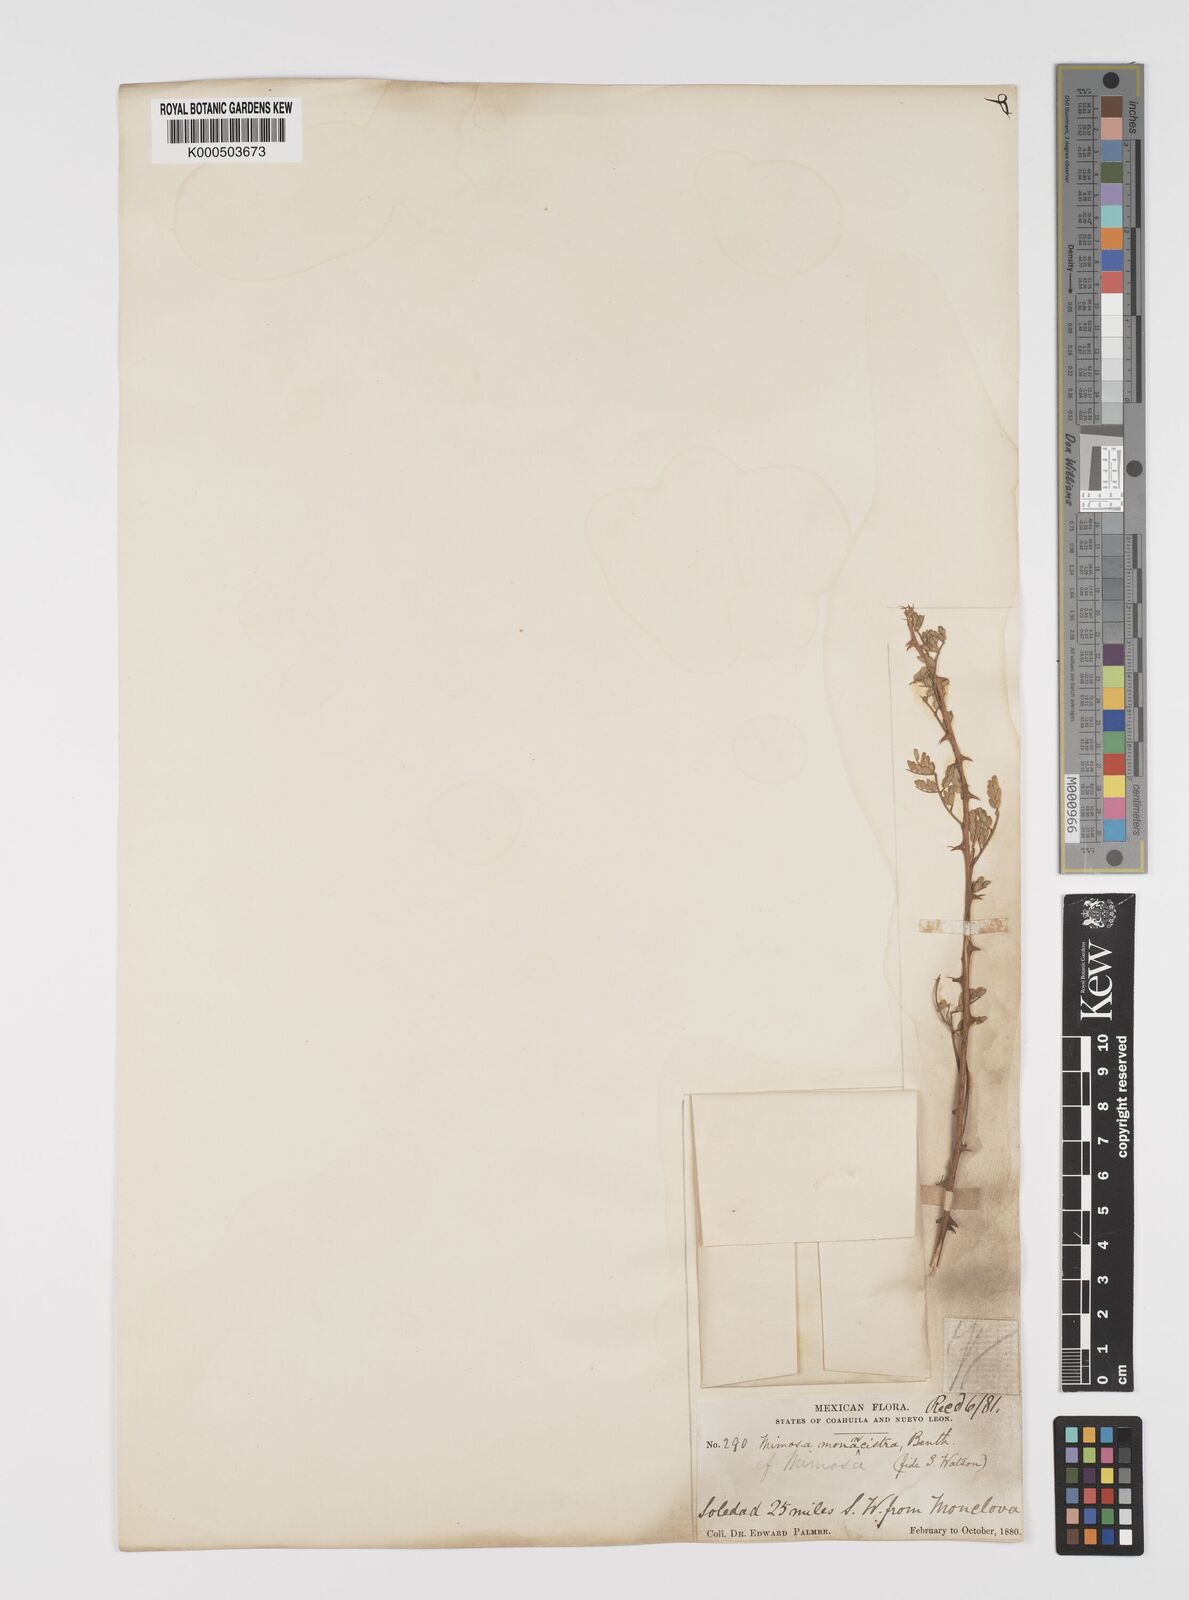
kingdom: Plantae
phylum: Tracheophyta
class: Magnoliopsida
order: Fabales
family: Fabaceae
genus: Mimosa
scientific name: Mimosa monancistra
